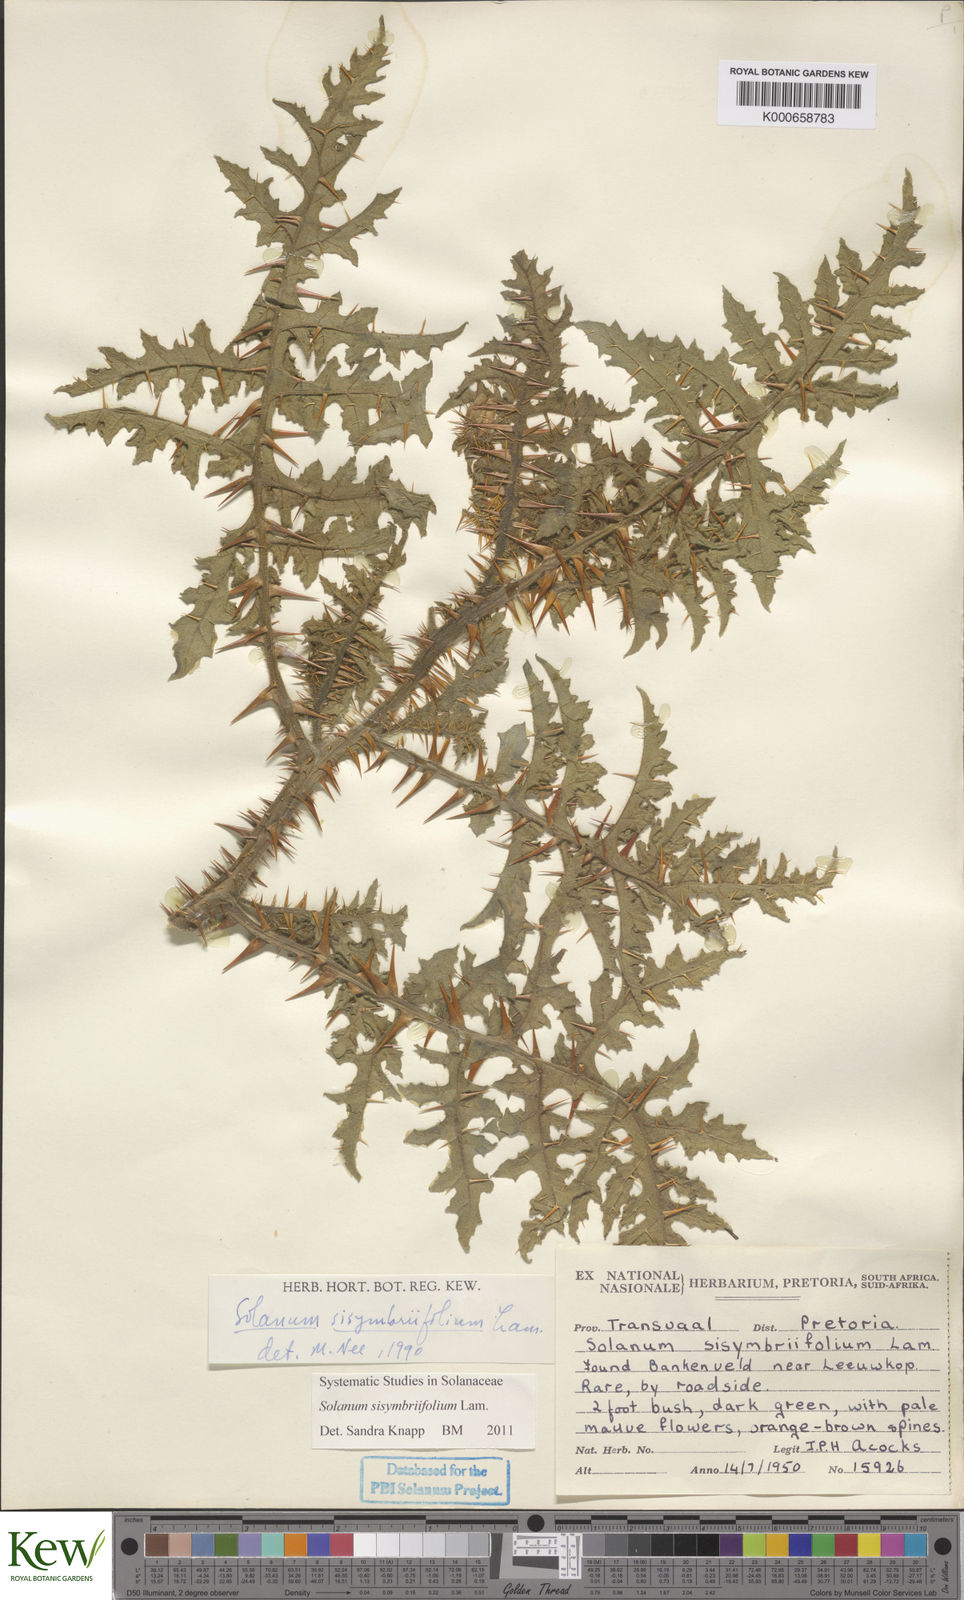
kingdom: Plantae
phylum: Tracheophyta
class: Magnoliopsida
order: Solanales
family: Solanaceae
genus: Solanum
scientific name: Solanum sisymbriifolium
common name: Red buffalo-bur
